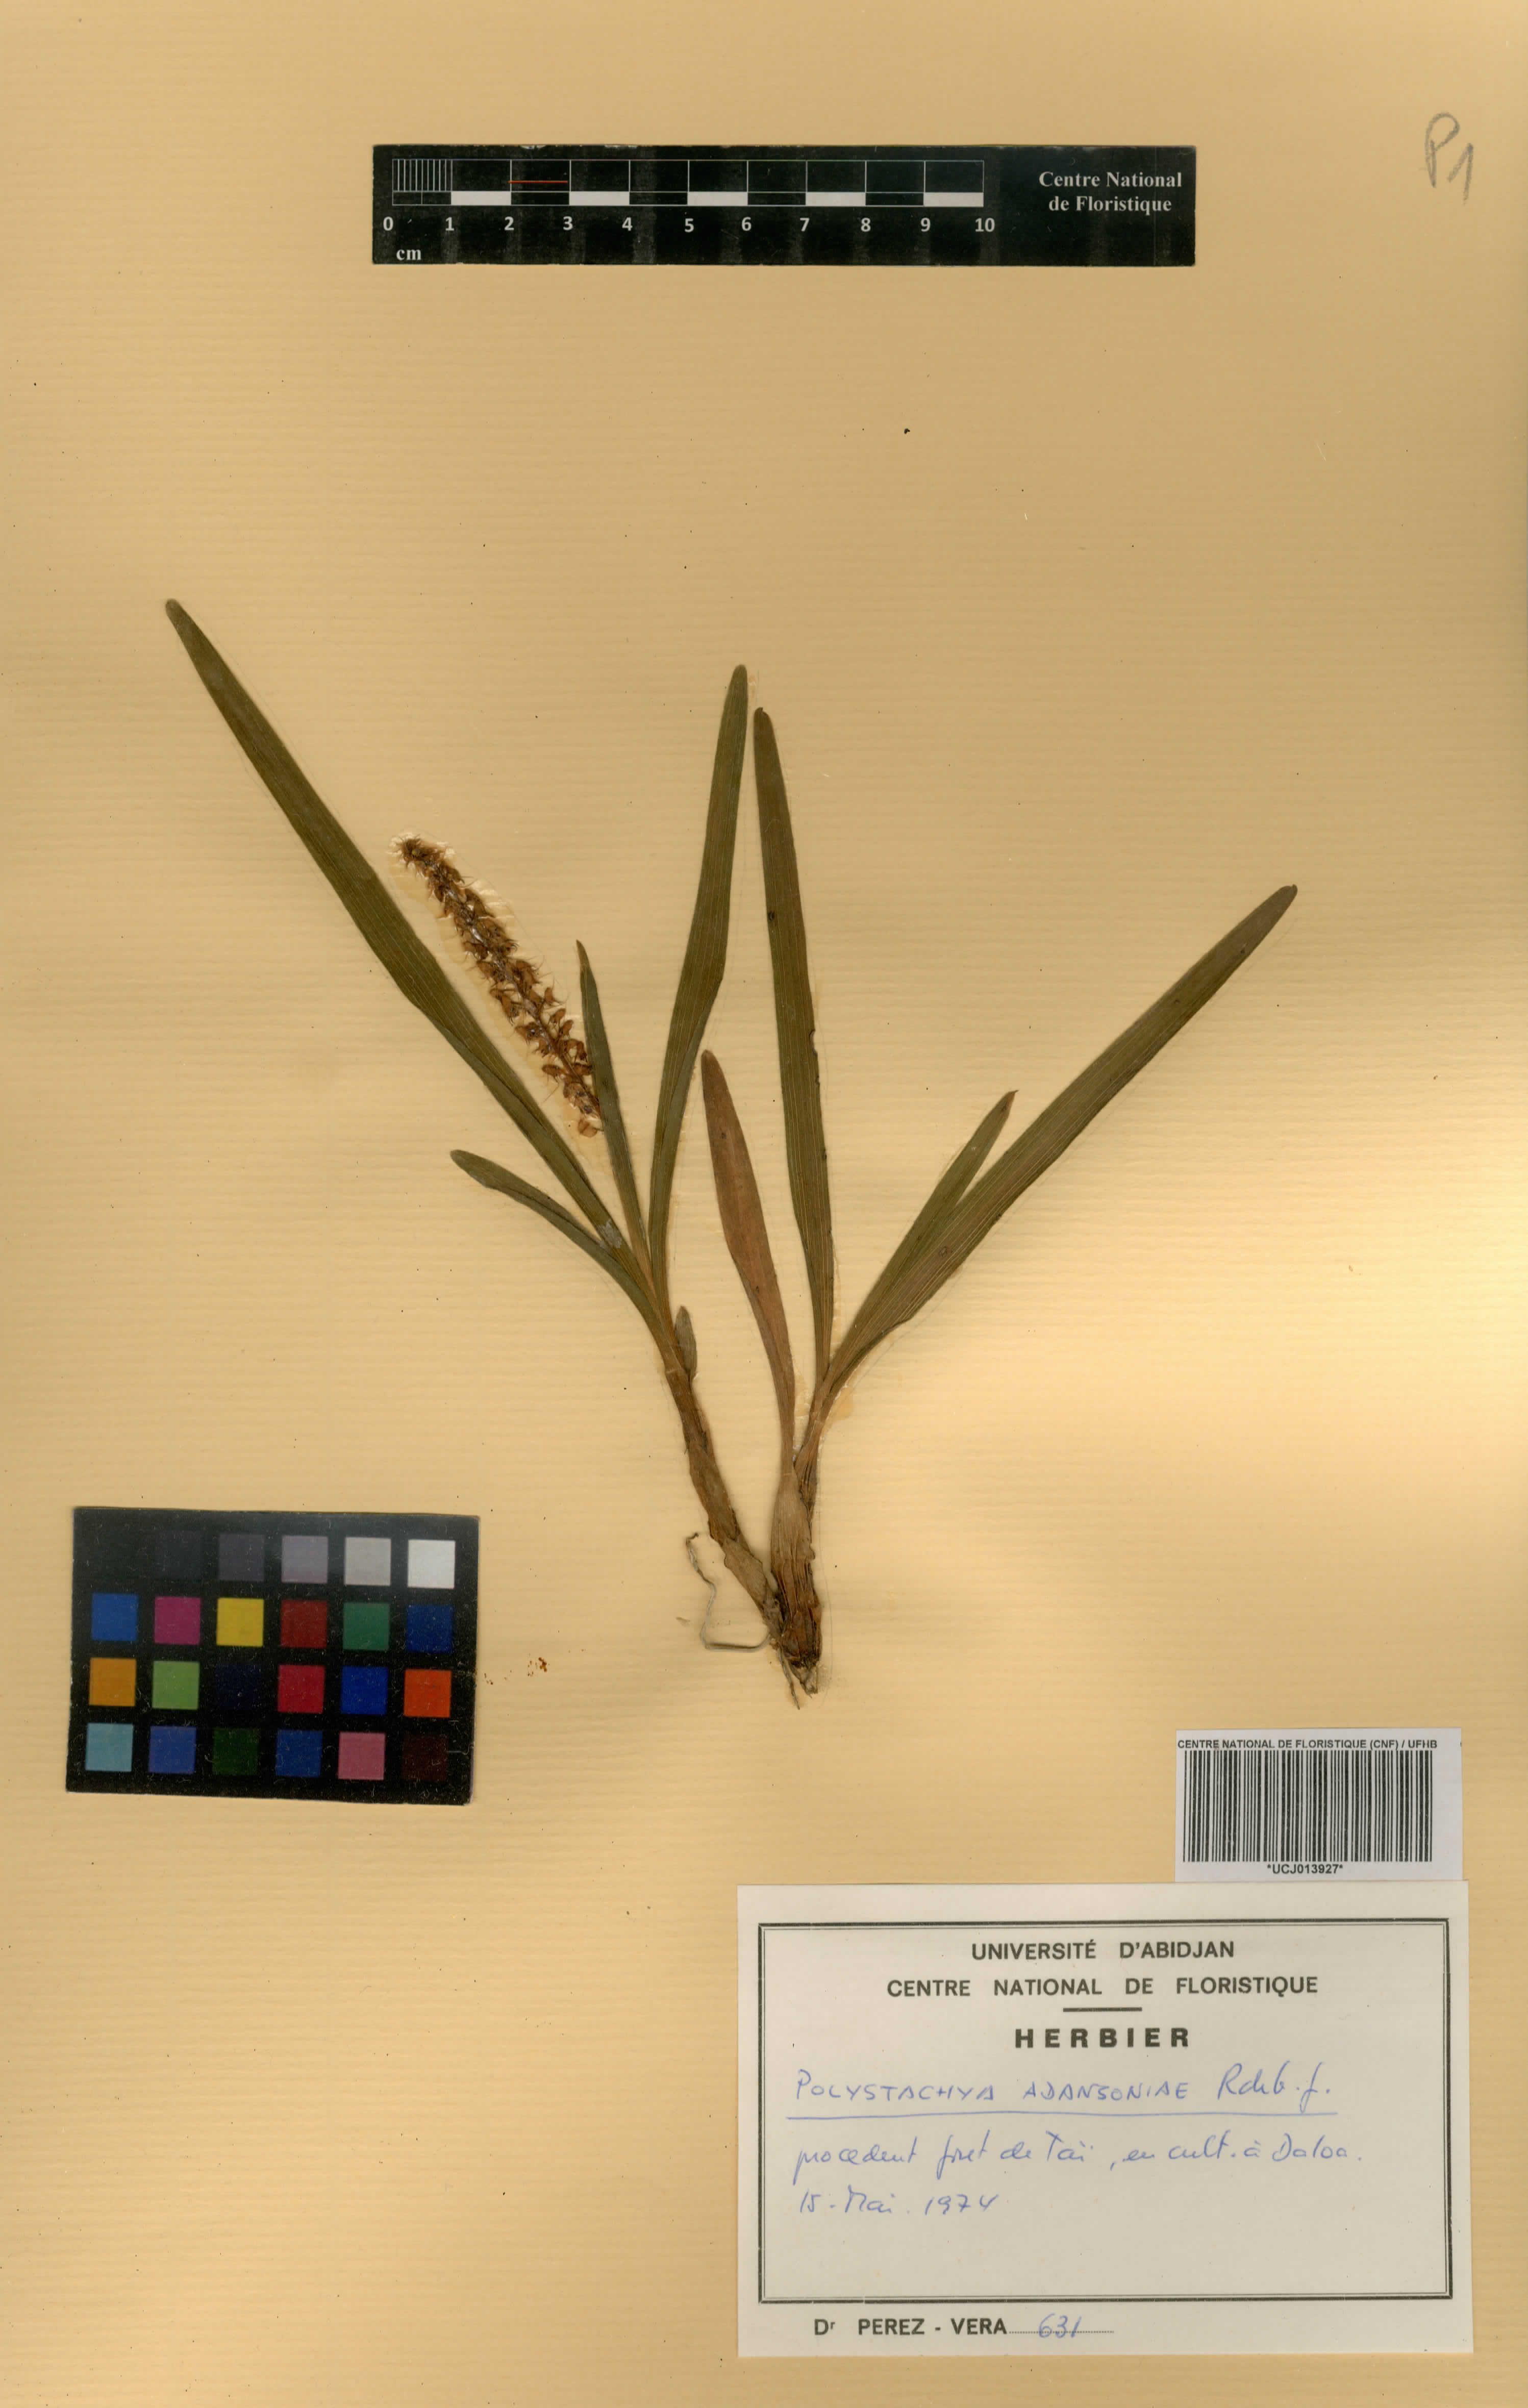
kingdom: Plantae
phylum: Tracheophyta
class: Liliopsida
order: Asparagales
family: Orchidaceae
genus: Polystachya
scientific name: Polystachya adansoniae
